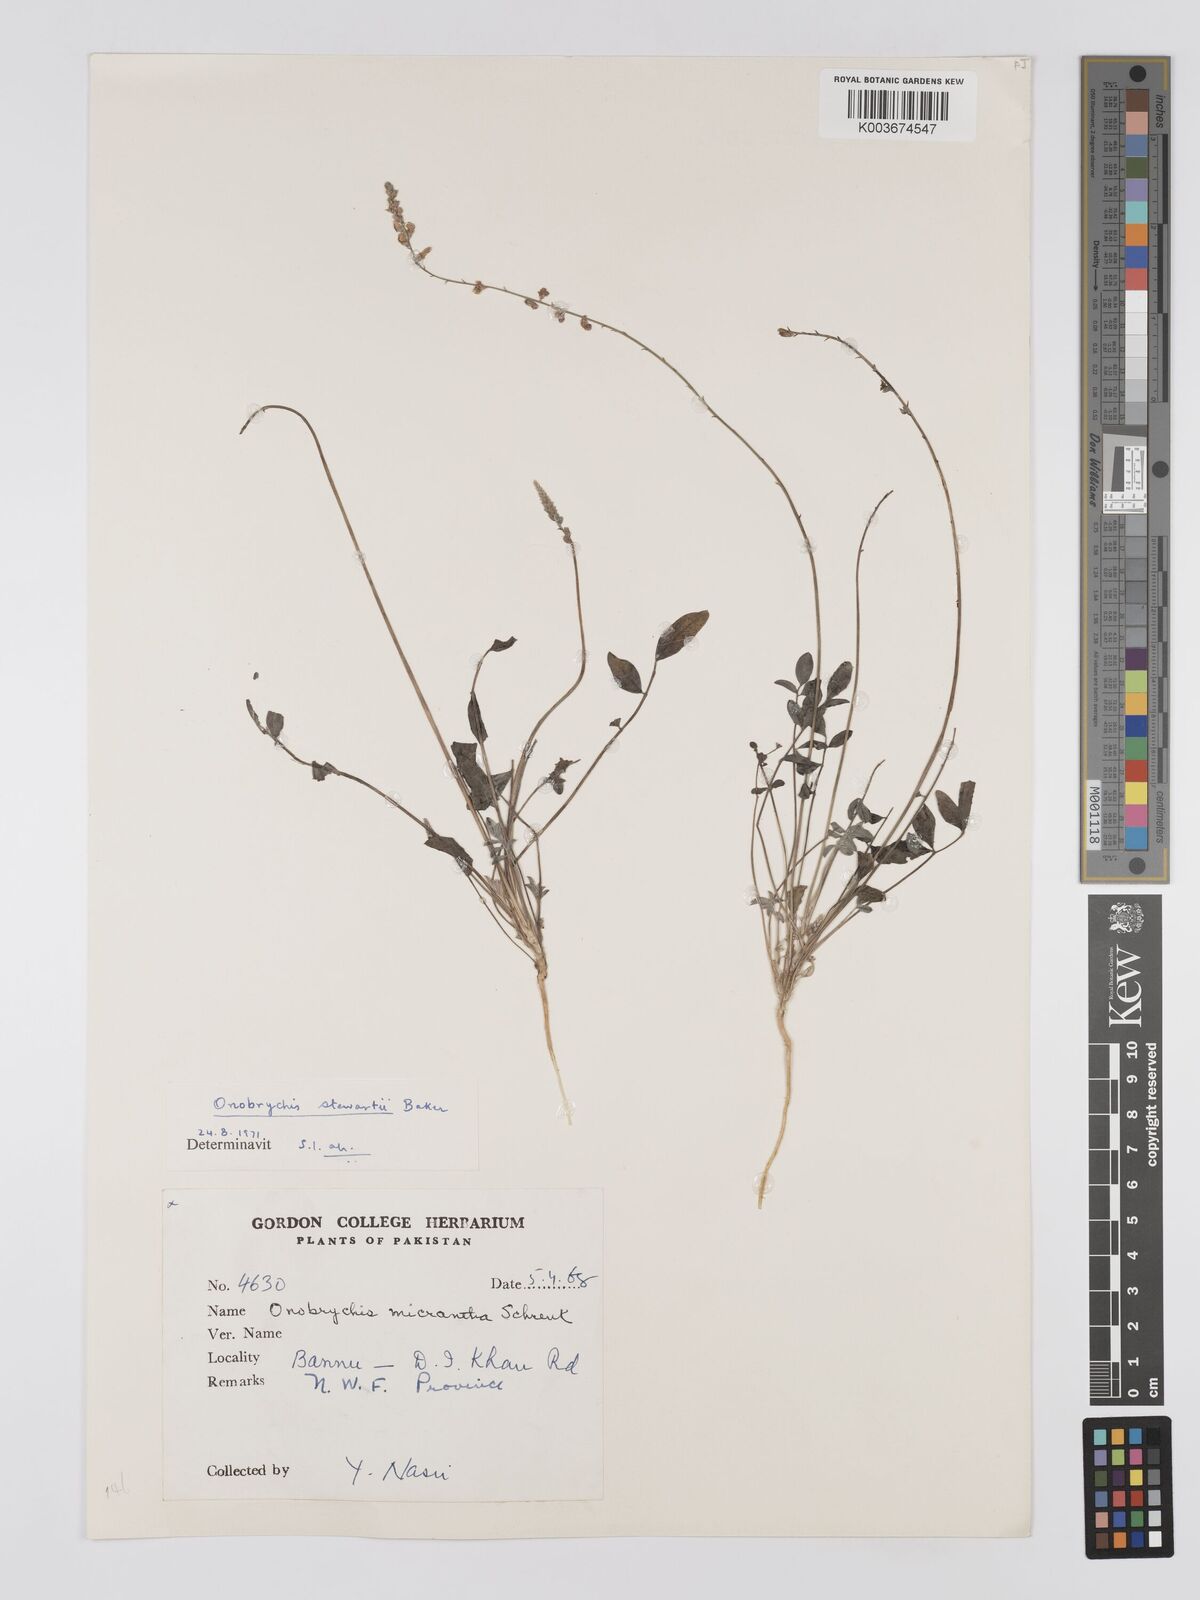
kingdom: Plantae
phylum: Tracheophyta
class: Magnoliopsida
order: Fabales
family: Fabaceae
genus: Onobrychis
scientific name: Onobrychis stewartii
